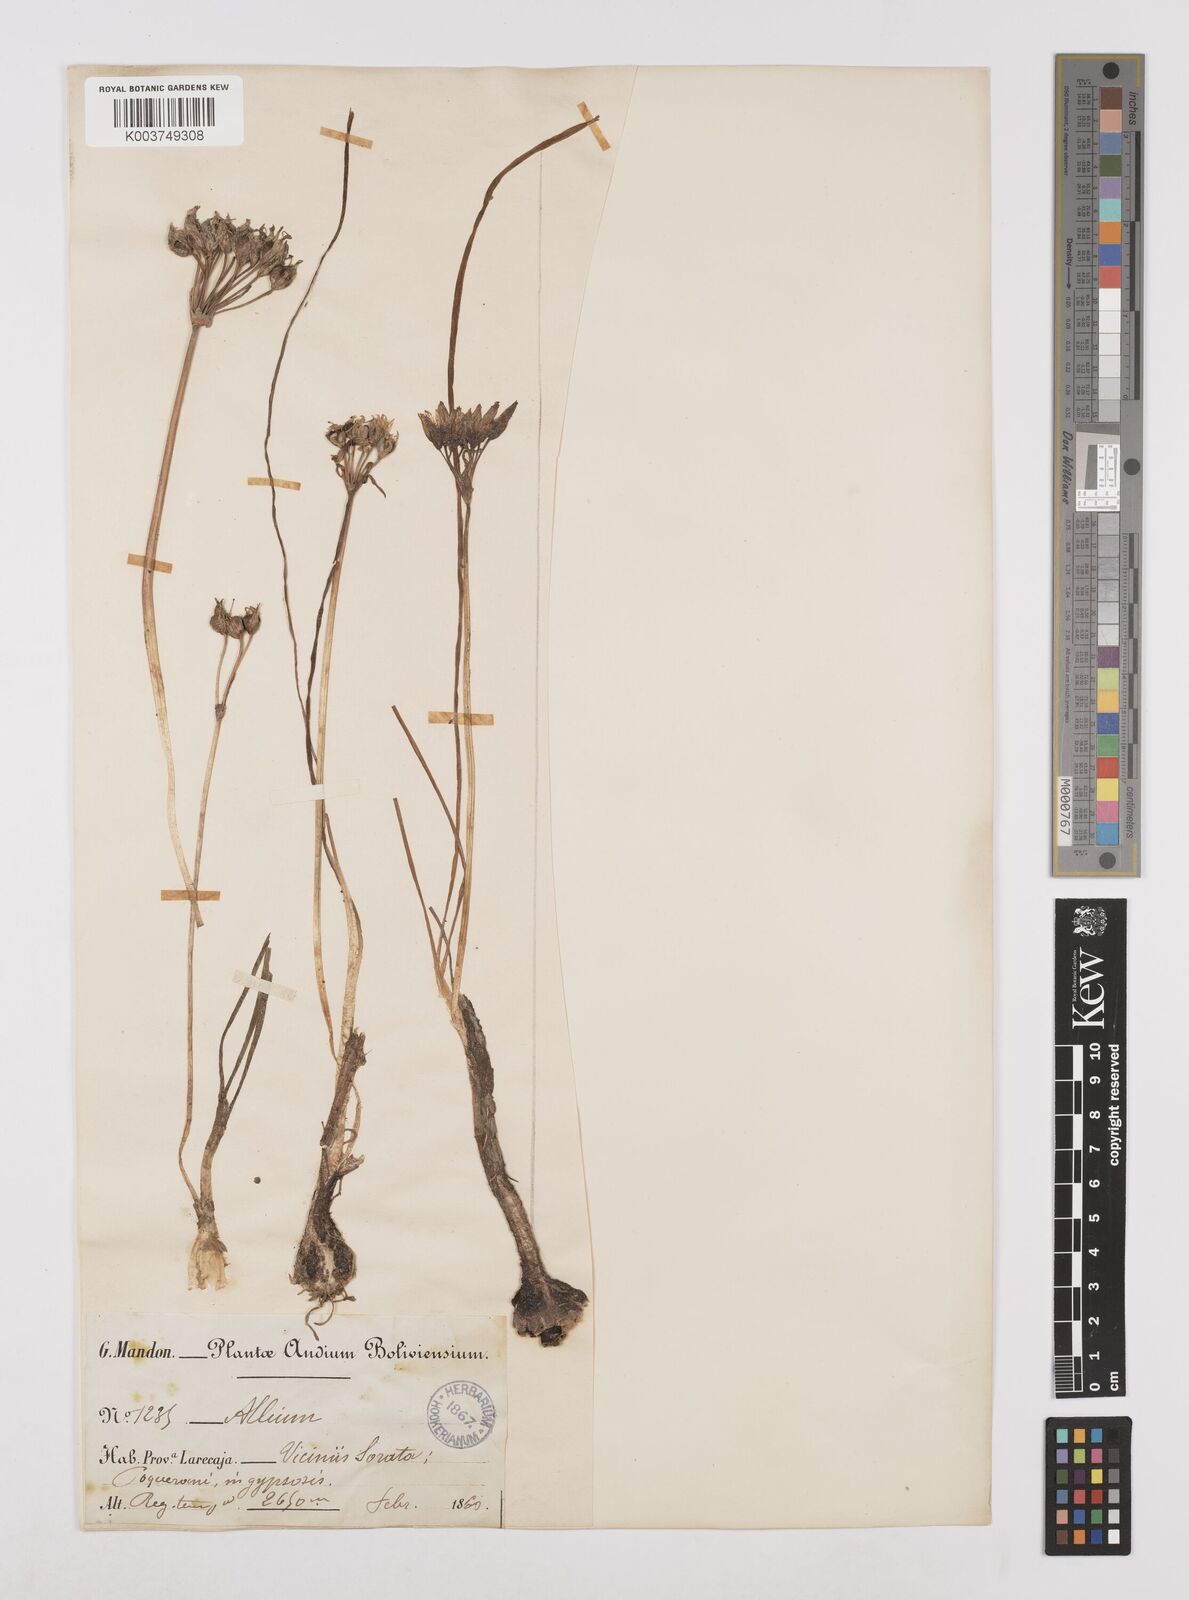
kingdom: Plantae
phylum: Tracheophyta
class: Liliopsida
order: Asparagales
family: Amaryllidaceae
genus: Nothoscordum
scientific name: Nothoscordum andicola
